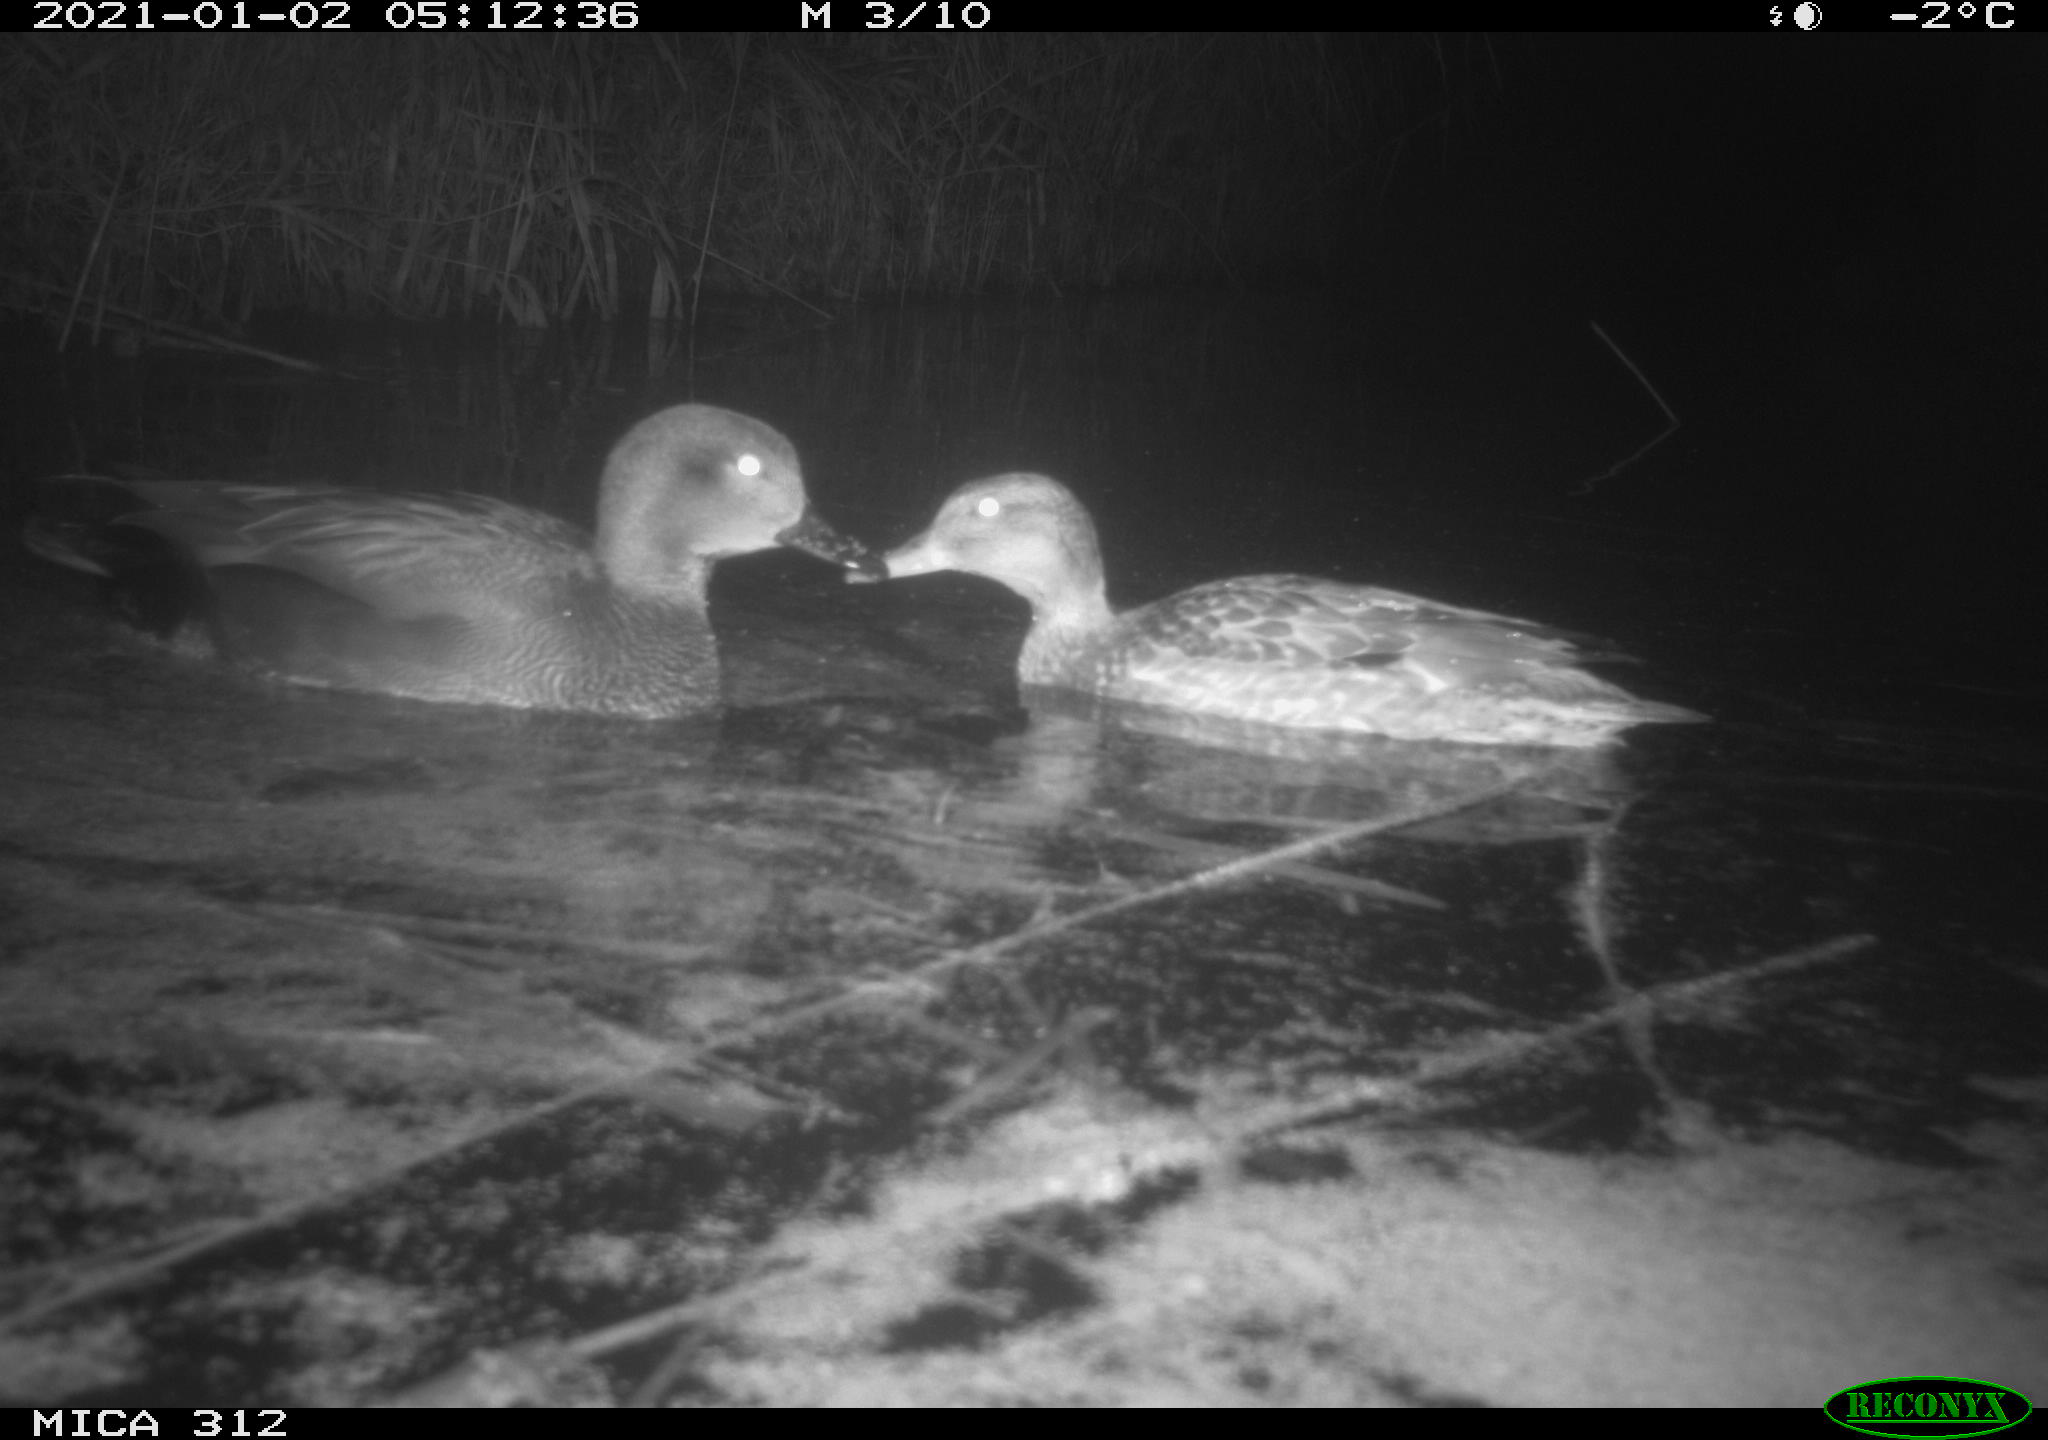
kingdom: Animalia
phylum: Chordata
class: Aves
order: Anseriformes
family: Anatidae
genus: Mareca
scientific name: Mareca strepera
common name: Gadwall
